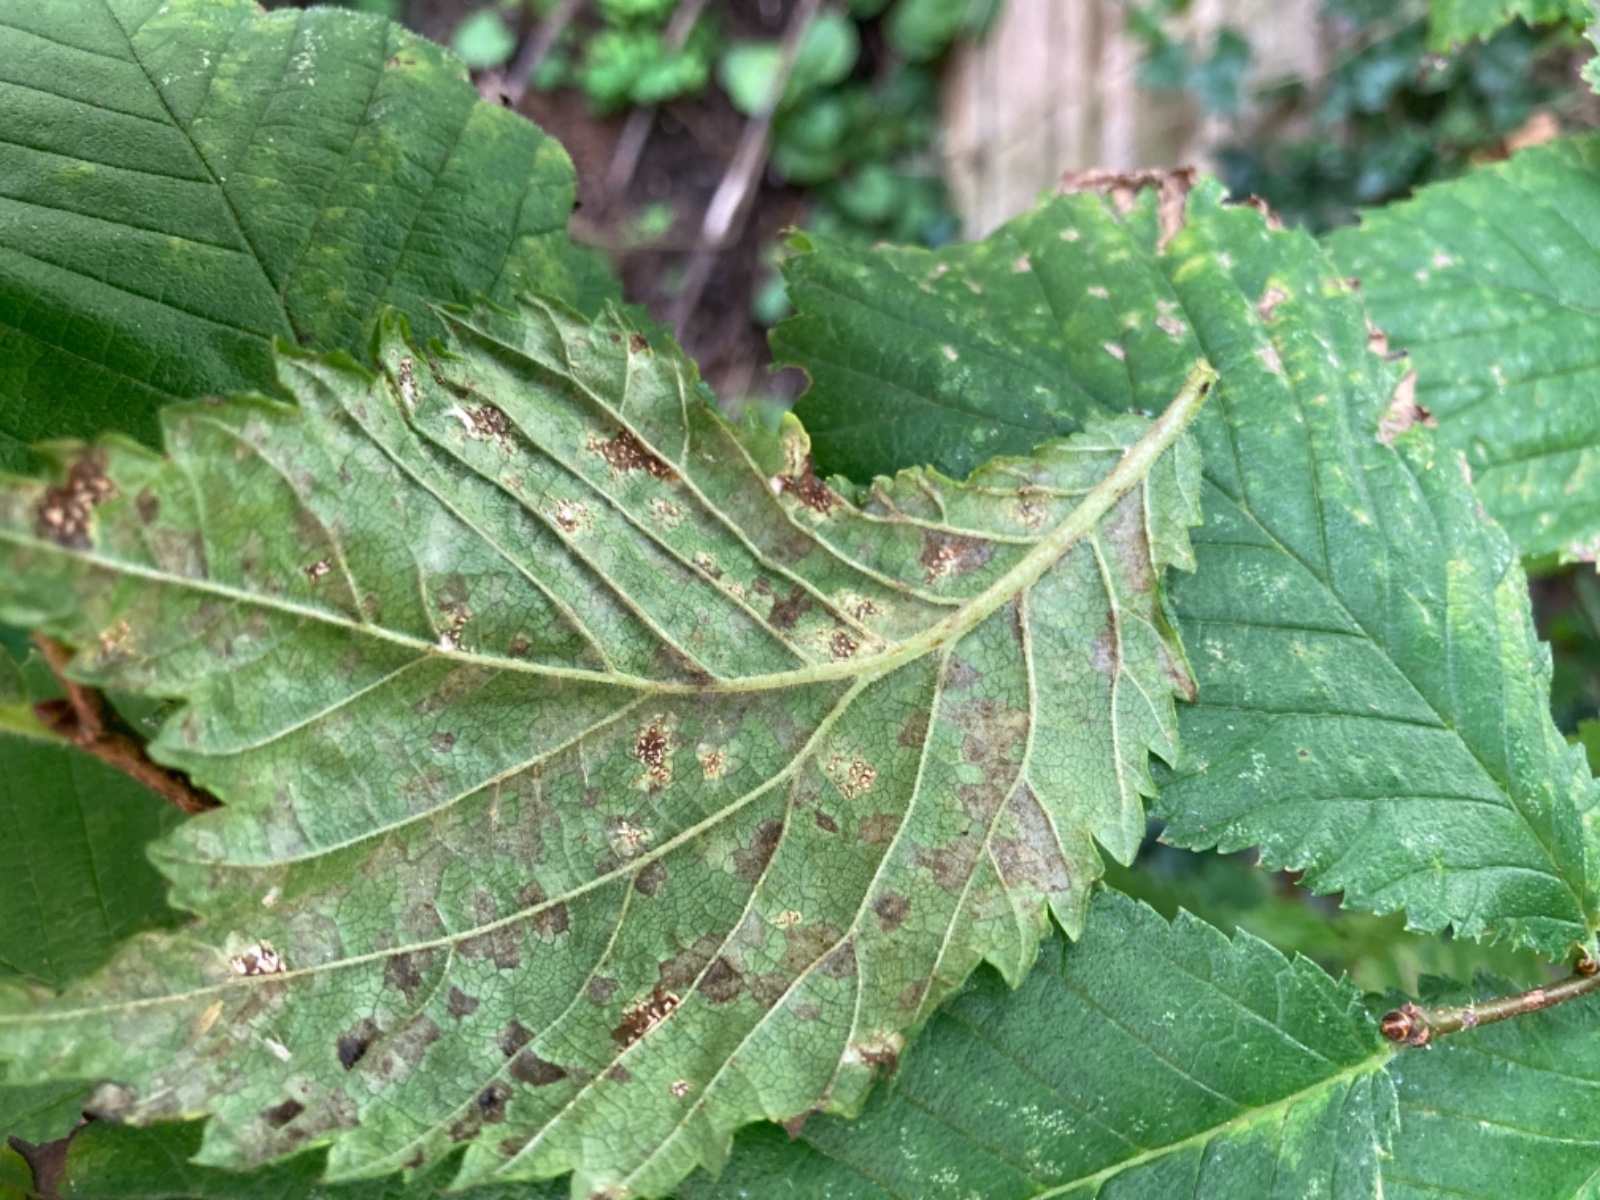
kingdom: Fungi
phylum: Ascomycota
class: Dothideomycetes
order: Mycosphaerellales
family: Mycosphaerellaceae
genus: Mycosphaerella
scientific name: Mycosphaerella ulmi
